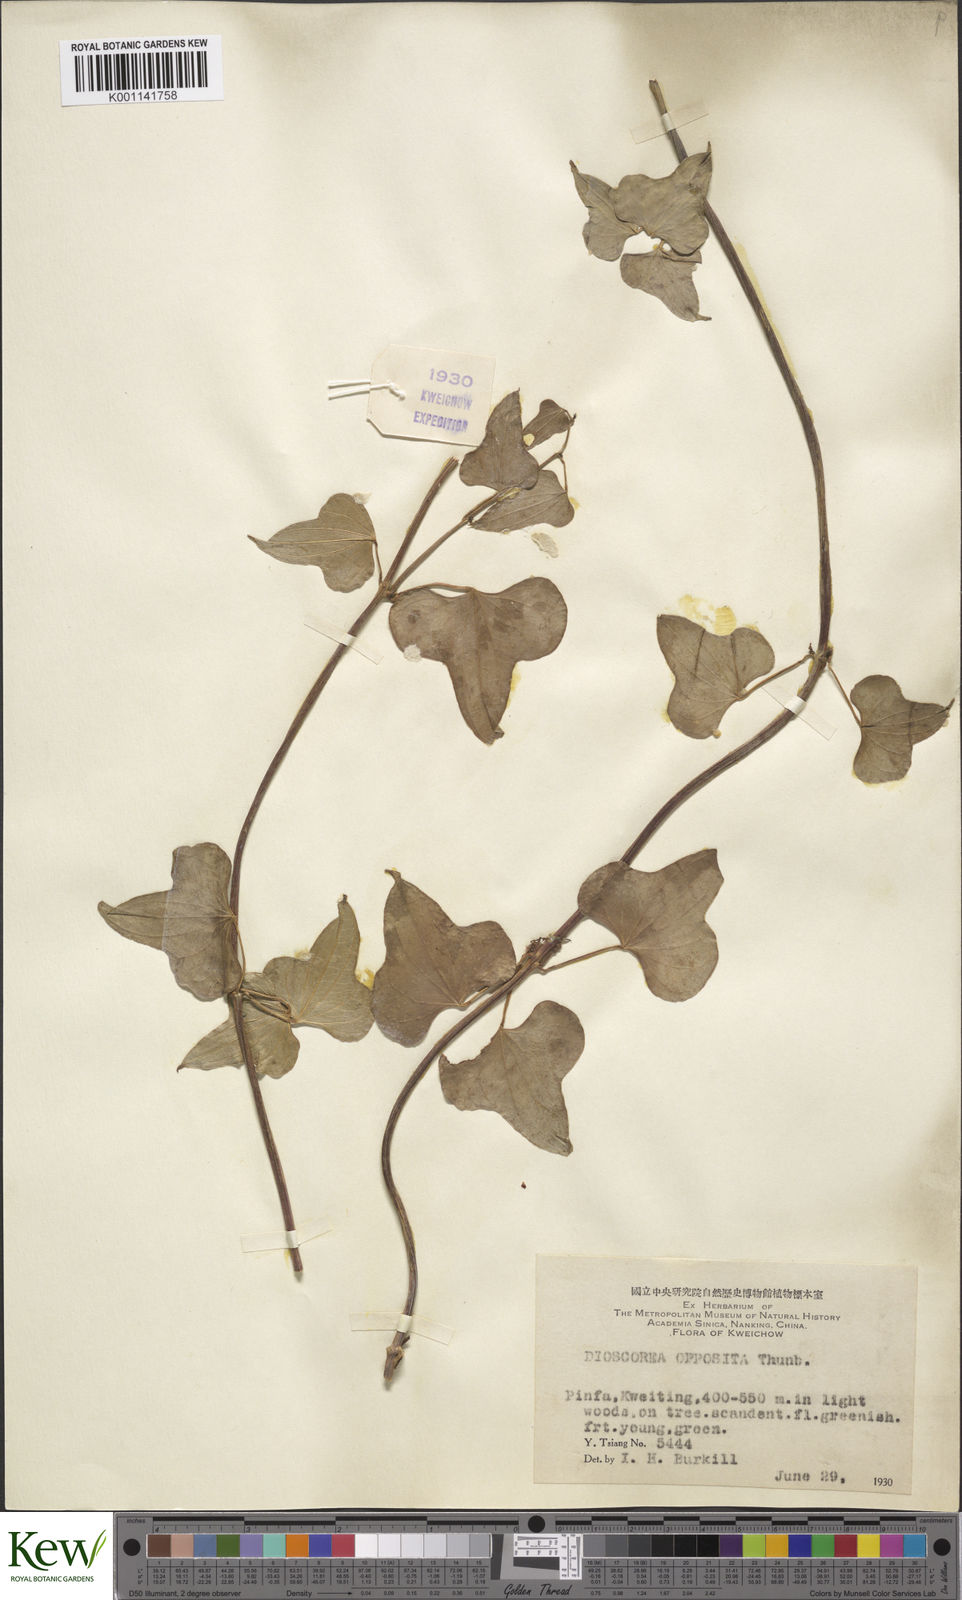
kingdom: Plantae
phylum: Tracheophyta
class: Liliopsida
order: Dioscoreales
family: Dioscoreaceae
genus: Dioscorea
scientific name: Dioscorea oppositifolia
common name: Chinese yam
